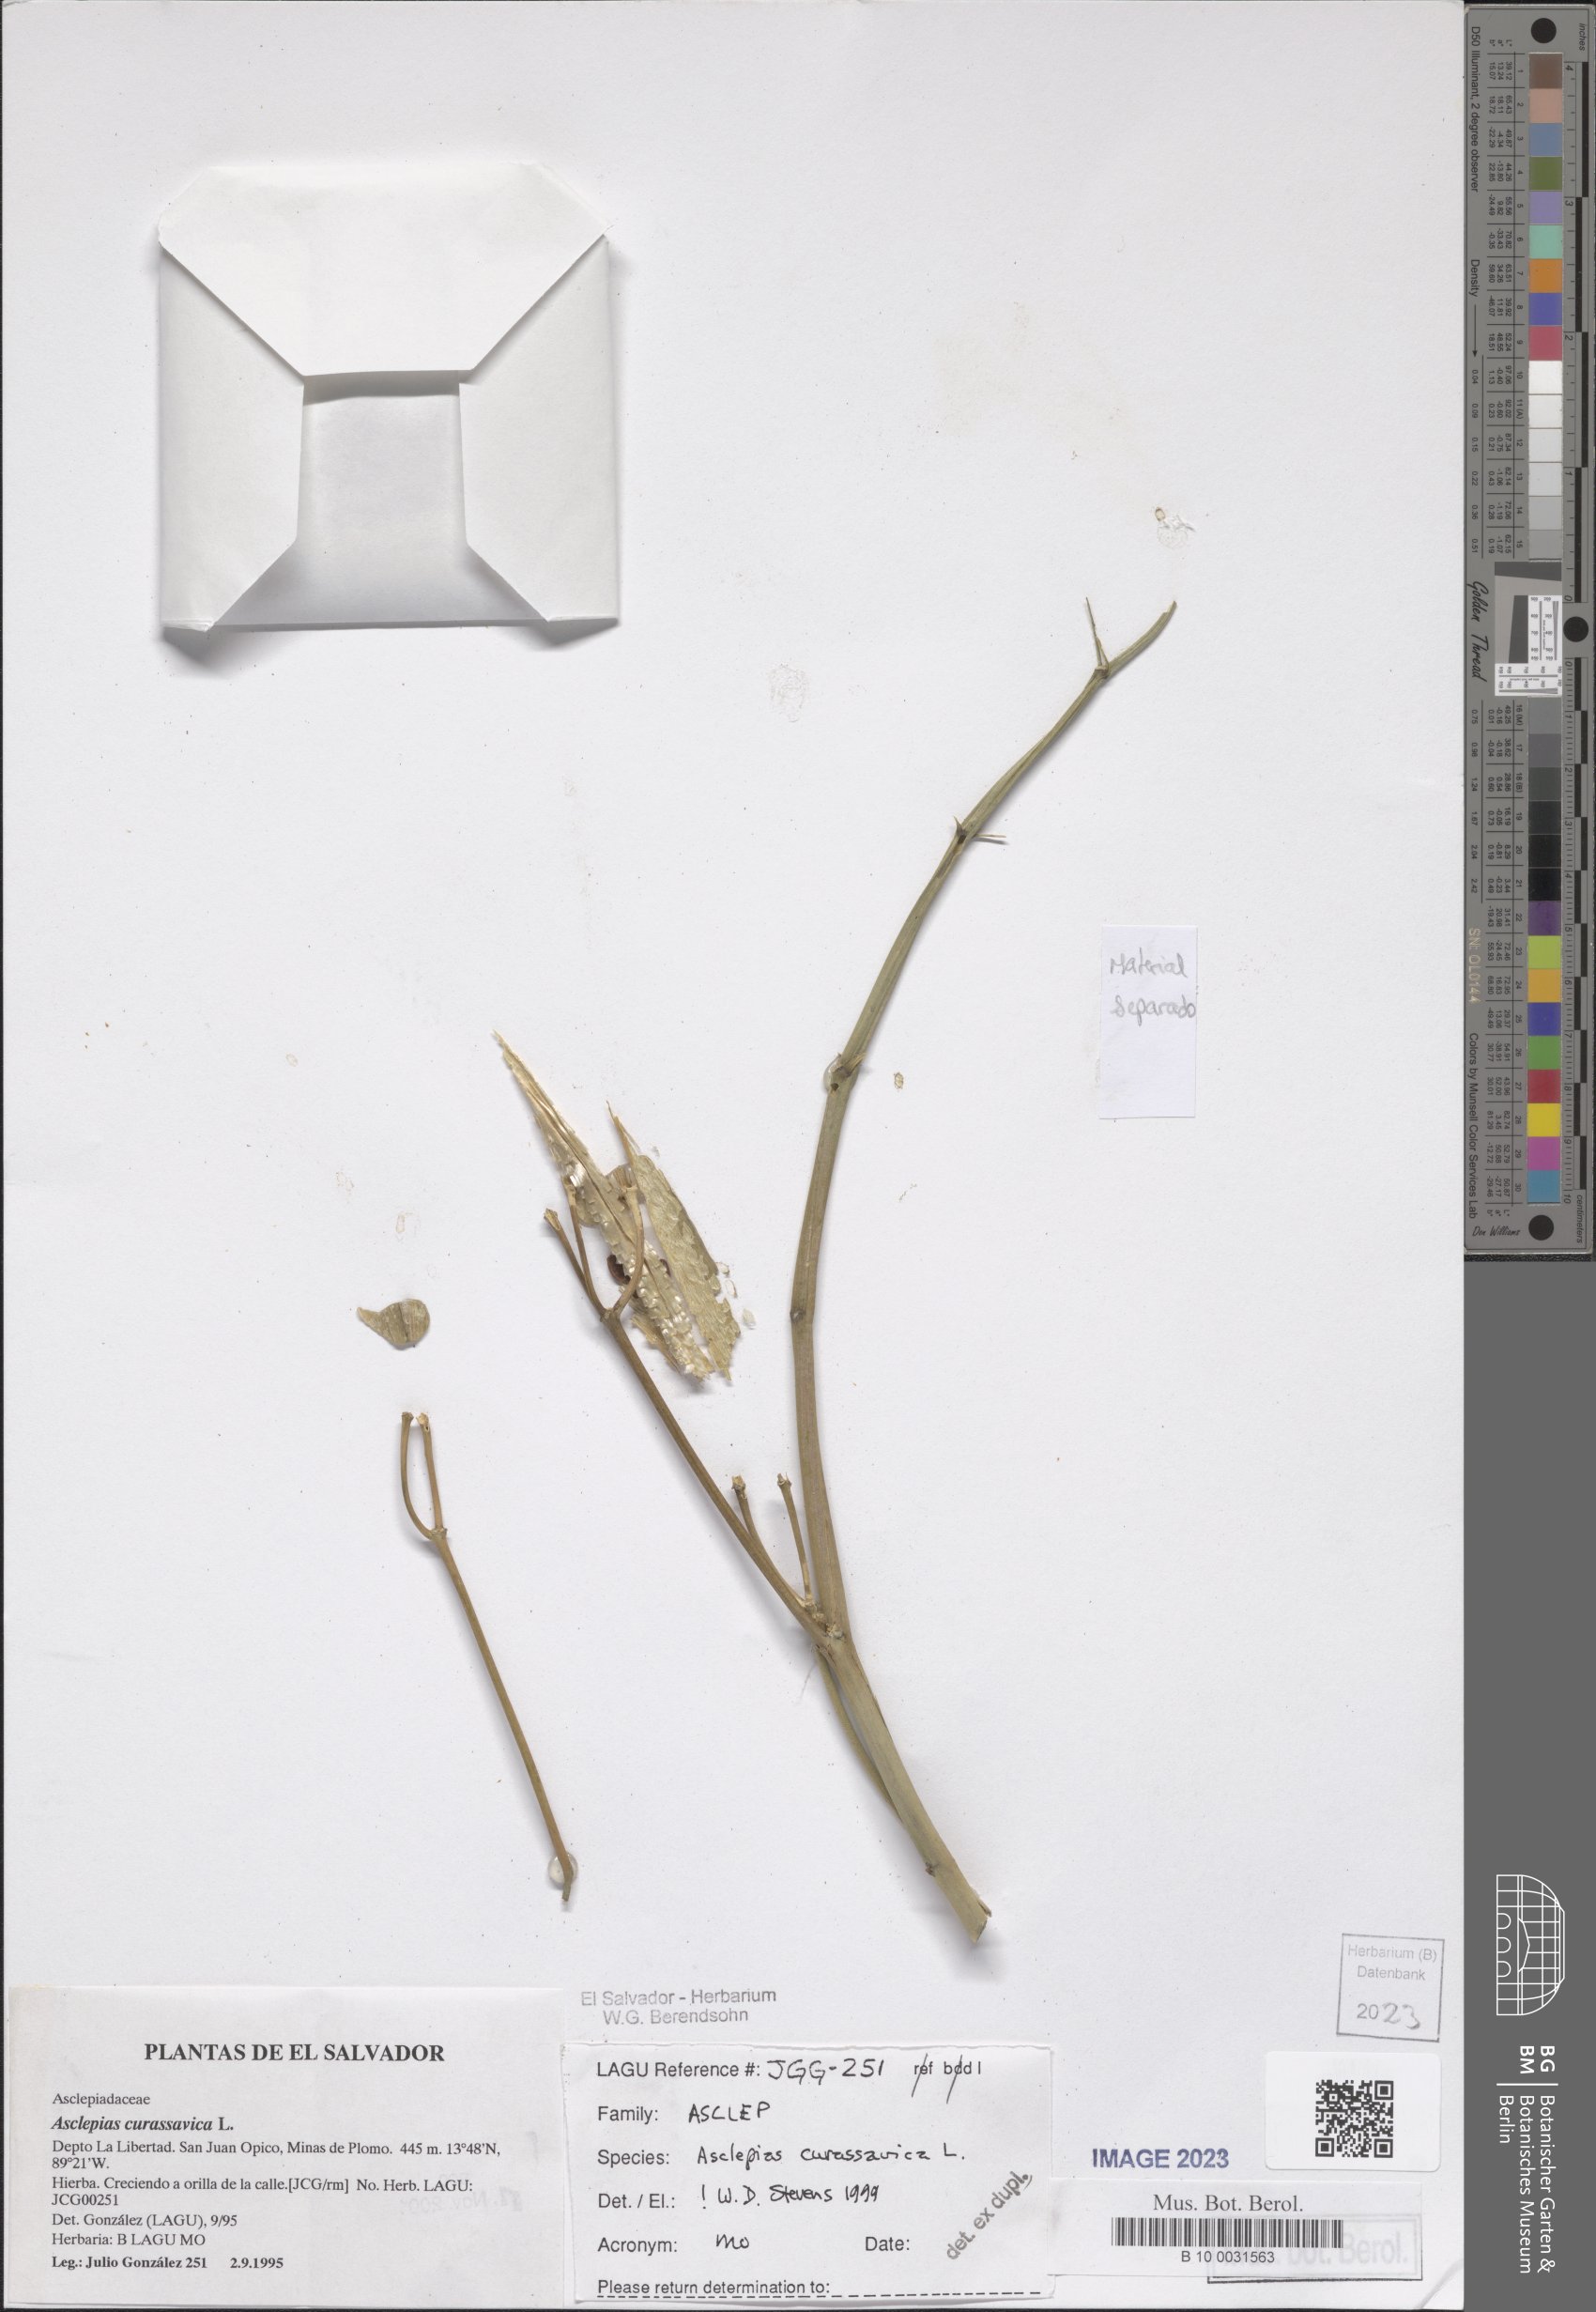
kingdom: Plantae
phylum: Tracheophyta
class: Magnoliopsida
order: Gentianales
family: Apocynaceae
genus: Asclepias
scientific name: Asclepias curassavica
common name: Bloodflower
